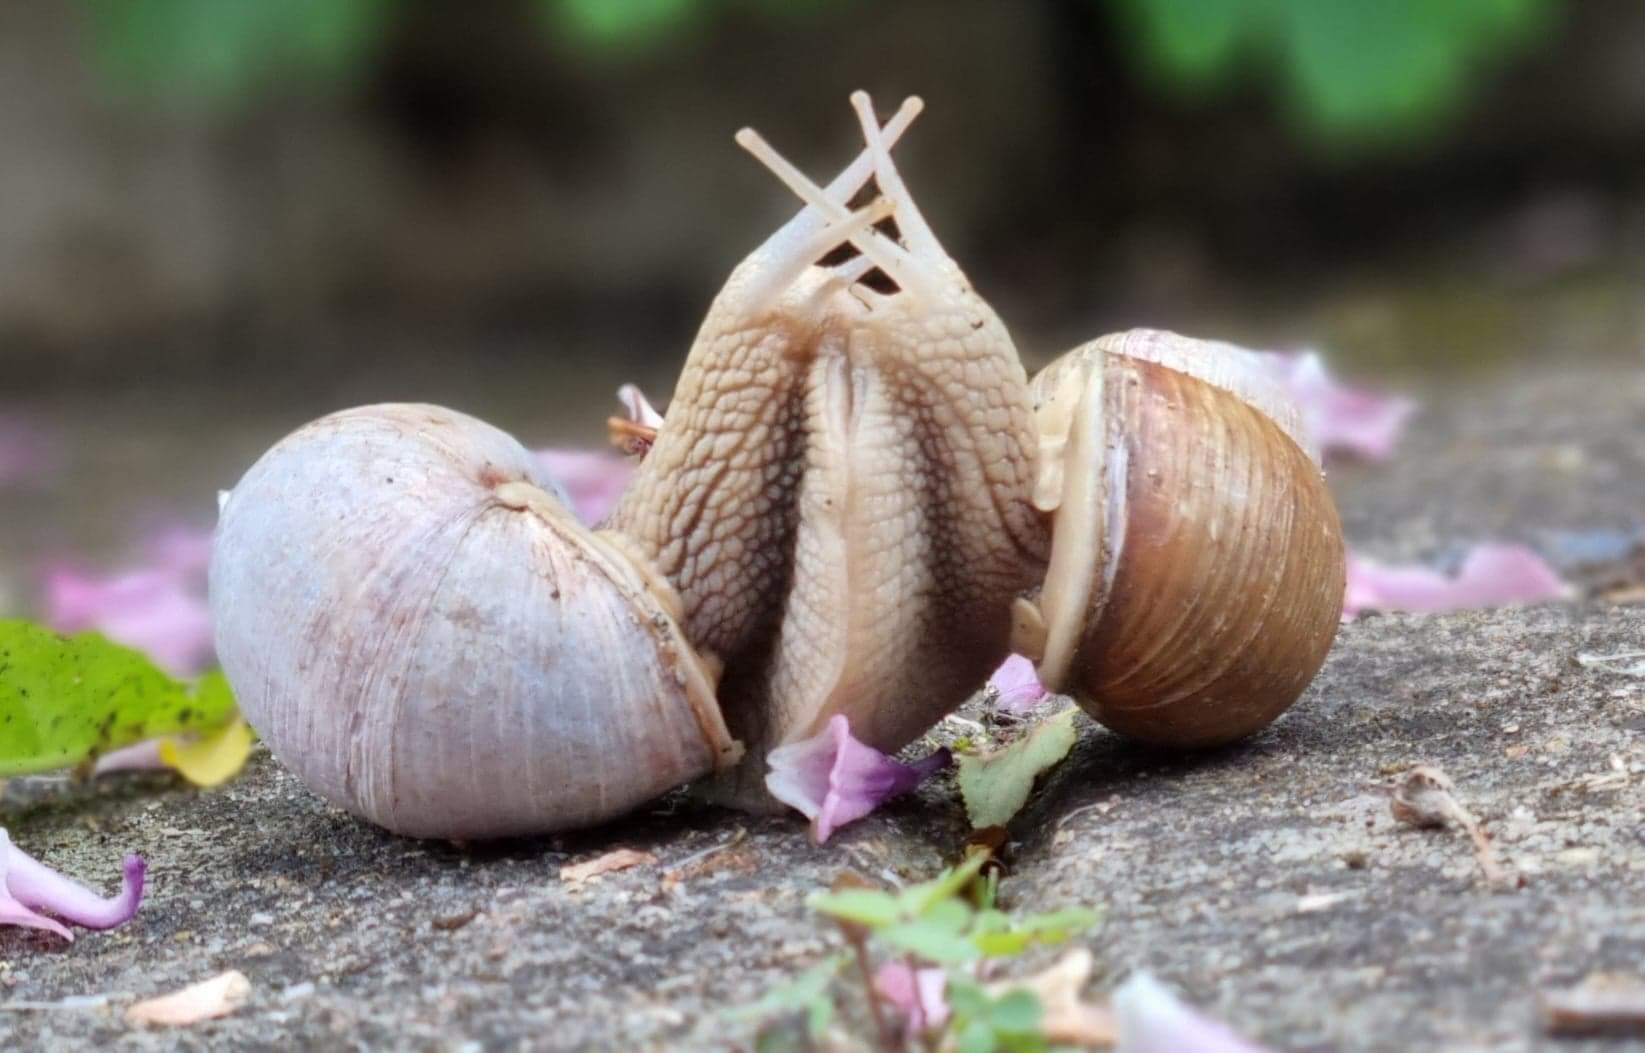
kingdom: Animalia
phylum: Mollusca
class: Gastropoda
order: Stylommatophora
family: Helicidae
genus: Helix
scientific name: Helix pomatia
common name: Vinbjergsnegl
